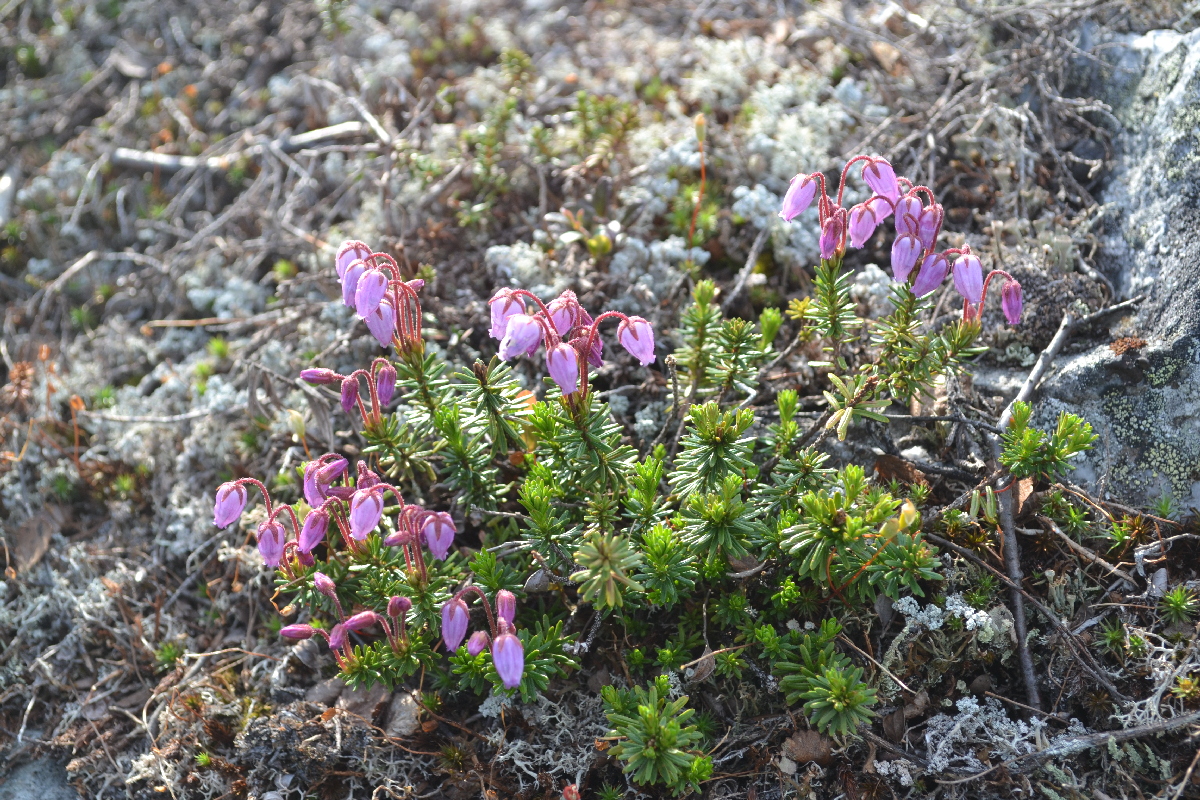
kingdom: Plantae
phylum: Tracheophyta
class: Magnoliopsida
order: Ericales
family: Ericaceae
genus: Phyllodoce
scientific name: Phyllodoce caerulea
